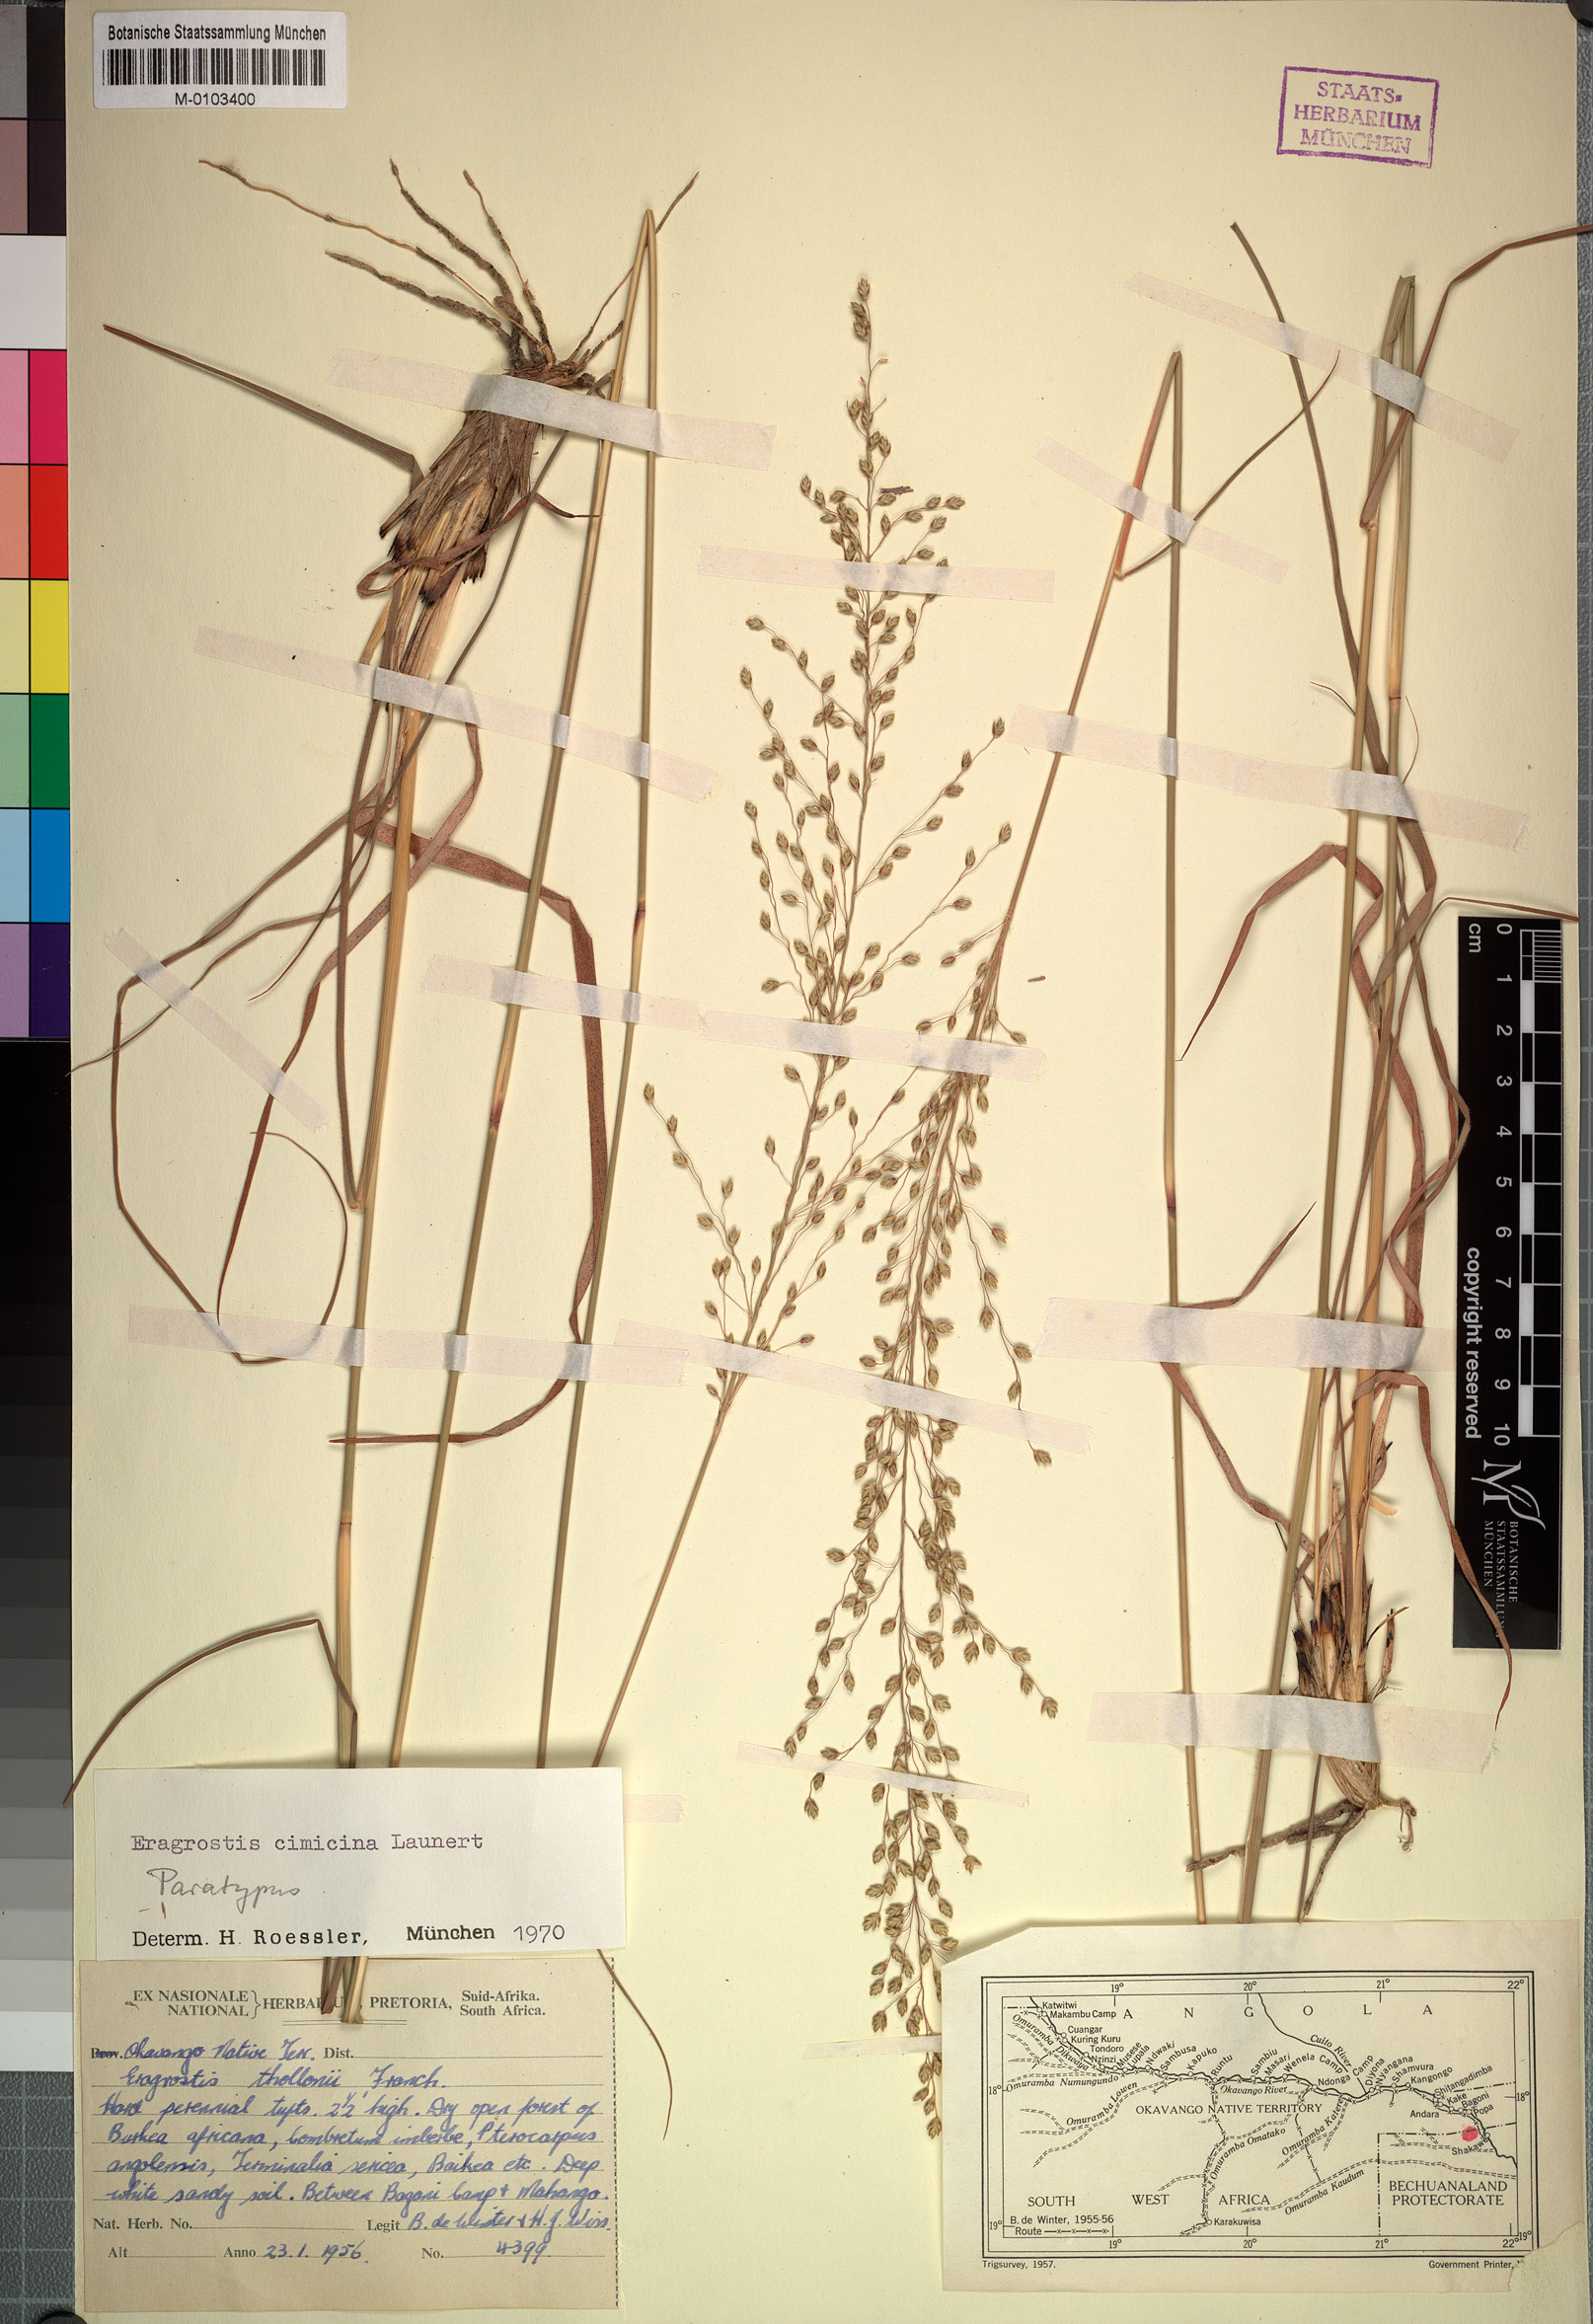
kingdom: Plantae
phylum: Tracheophyta
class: Liliopsida
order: Poales
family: Poaceae
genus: Eragrostis
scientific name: Eragrostis cimicina
